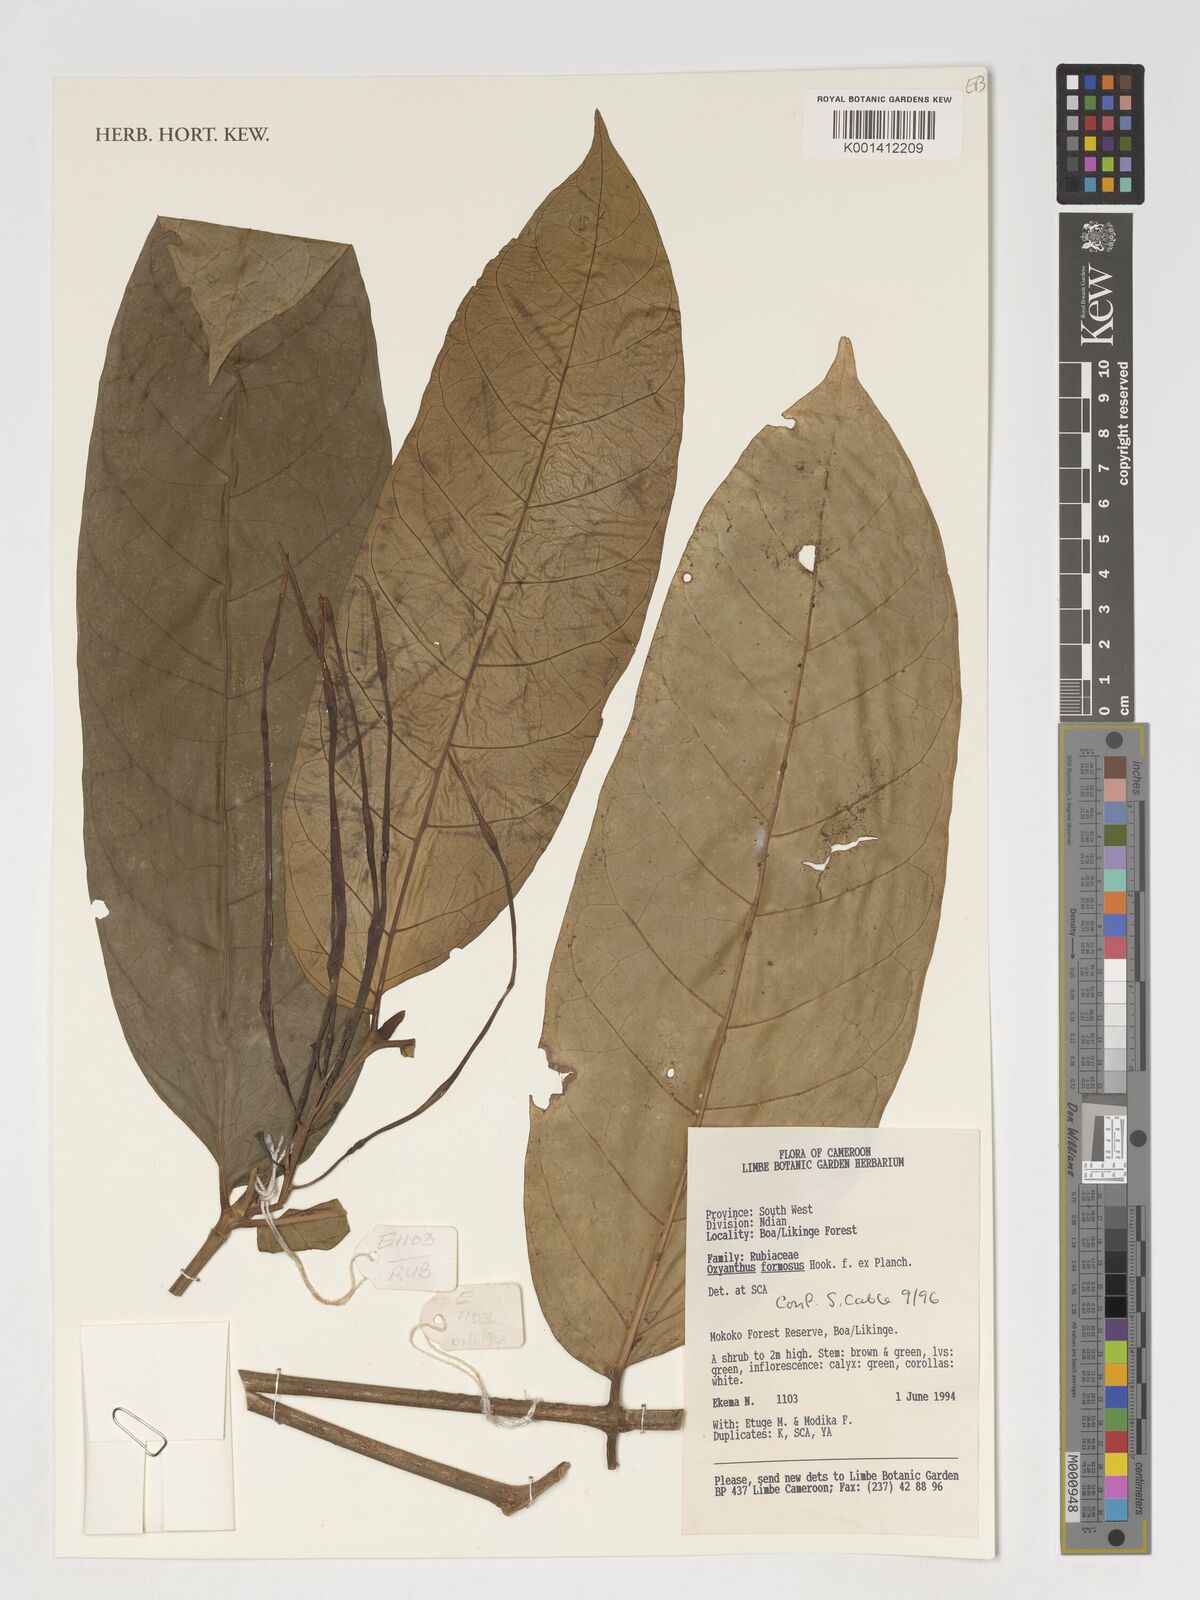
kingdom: Plantae
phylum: Tracheophyta
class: Magnoliopsida
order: Gentianales
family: Rubiaceae
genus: Oxyanthus
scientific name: Oxyanthus formosus
